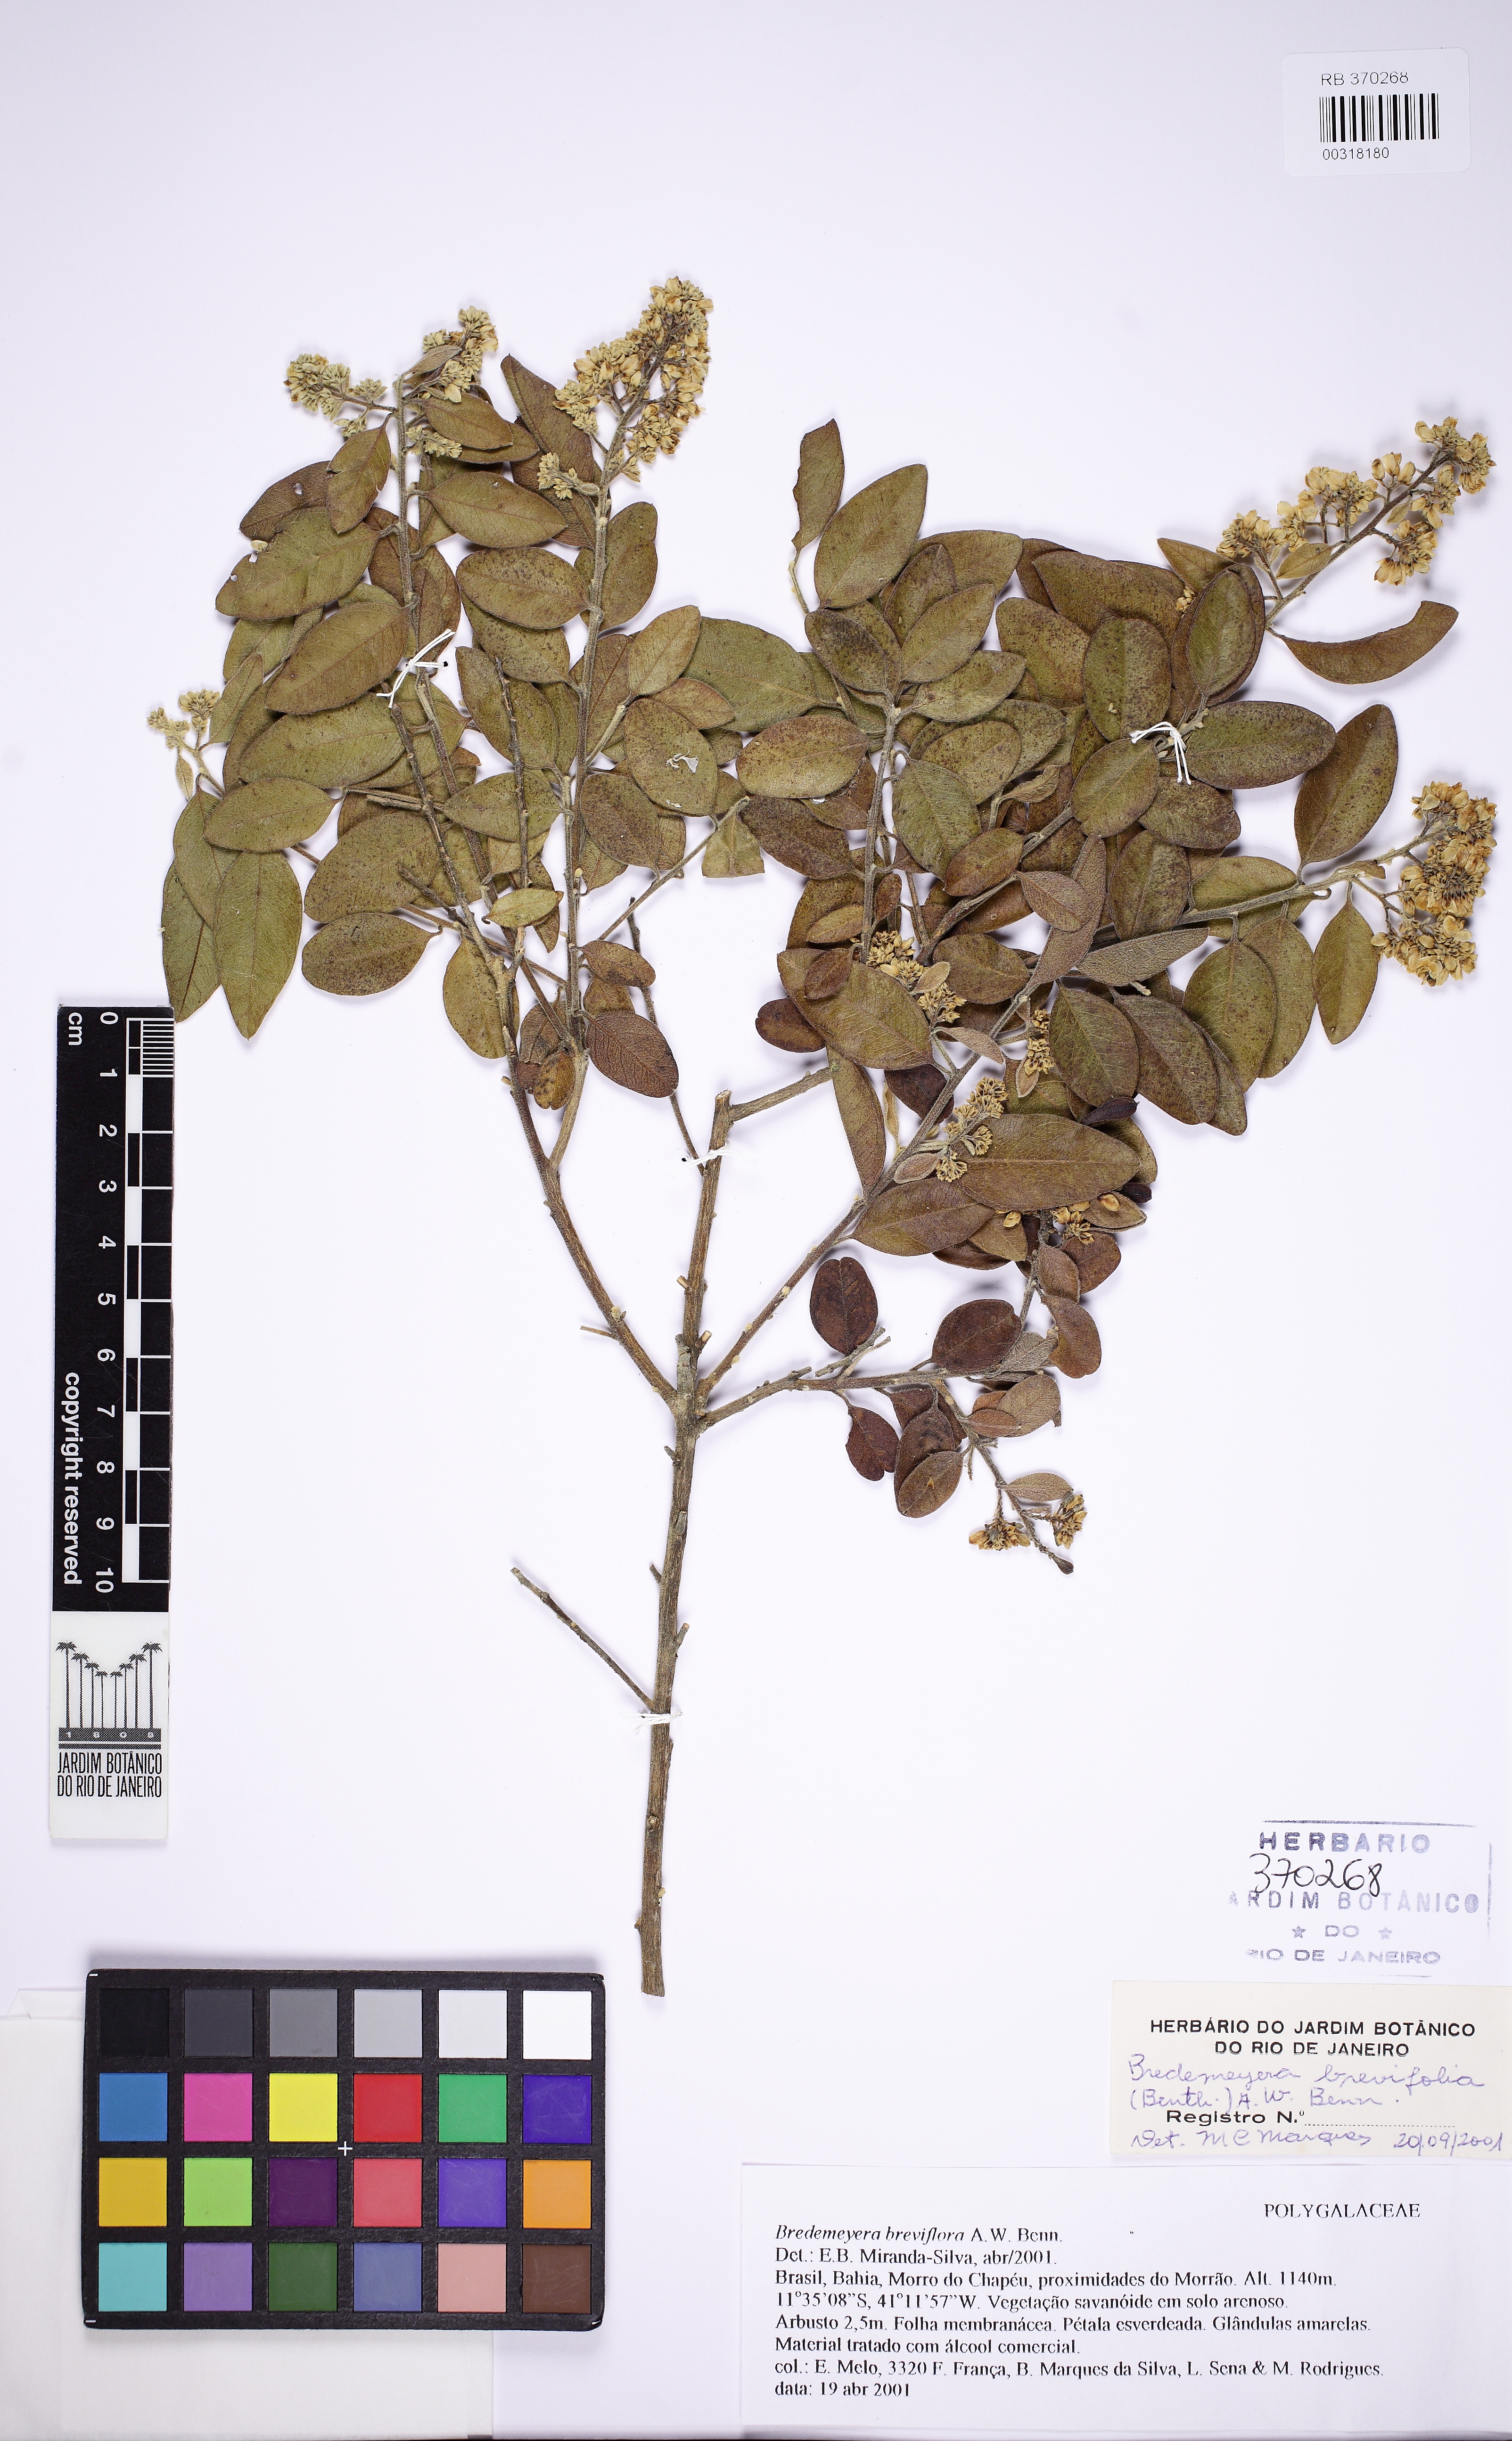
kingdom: Plantae
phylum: Tracheophyta
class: Magnoliopsida
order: Fabales
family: Polygalaceae
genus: Bredemeyera
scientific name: Bredemeyera brevifolia
